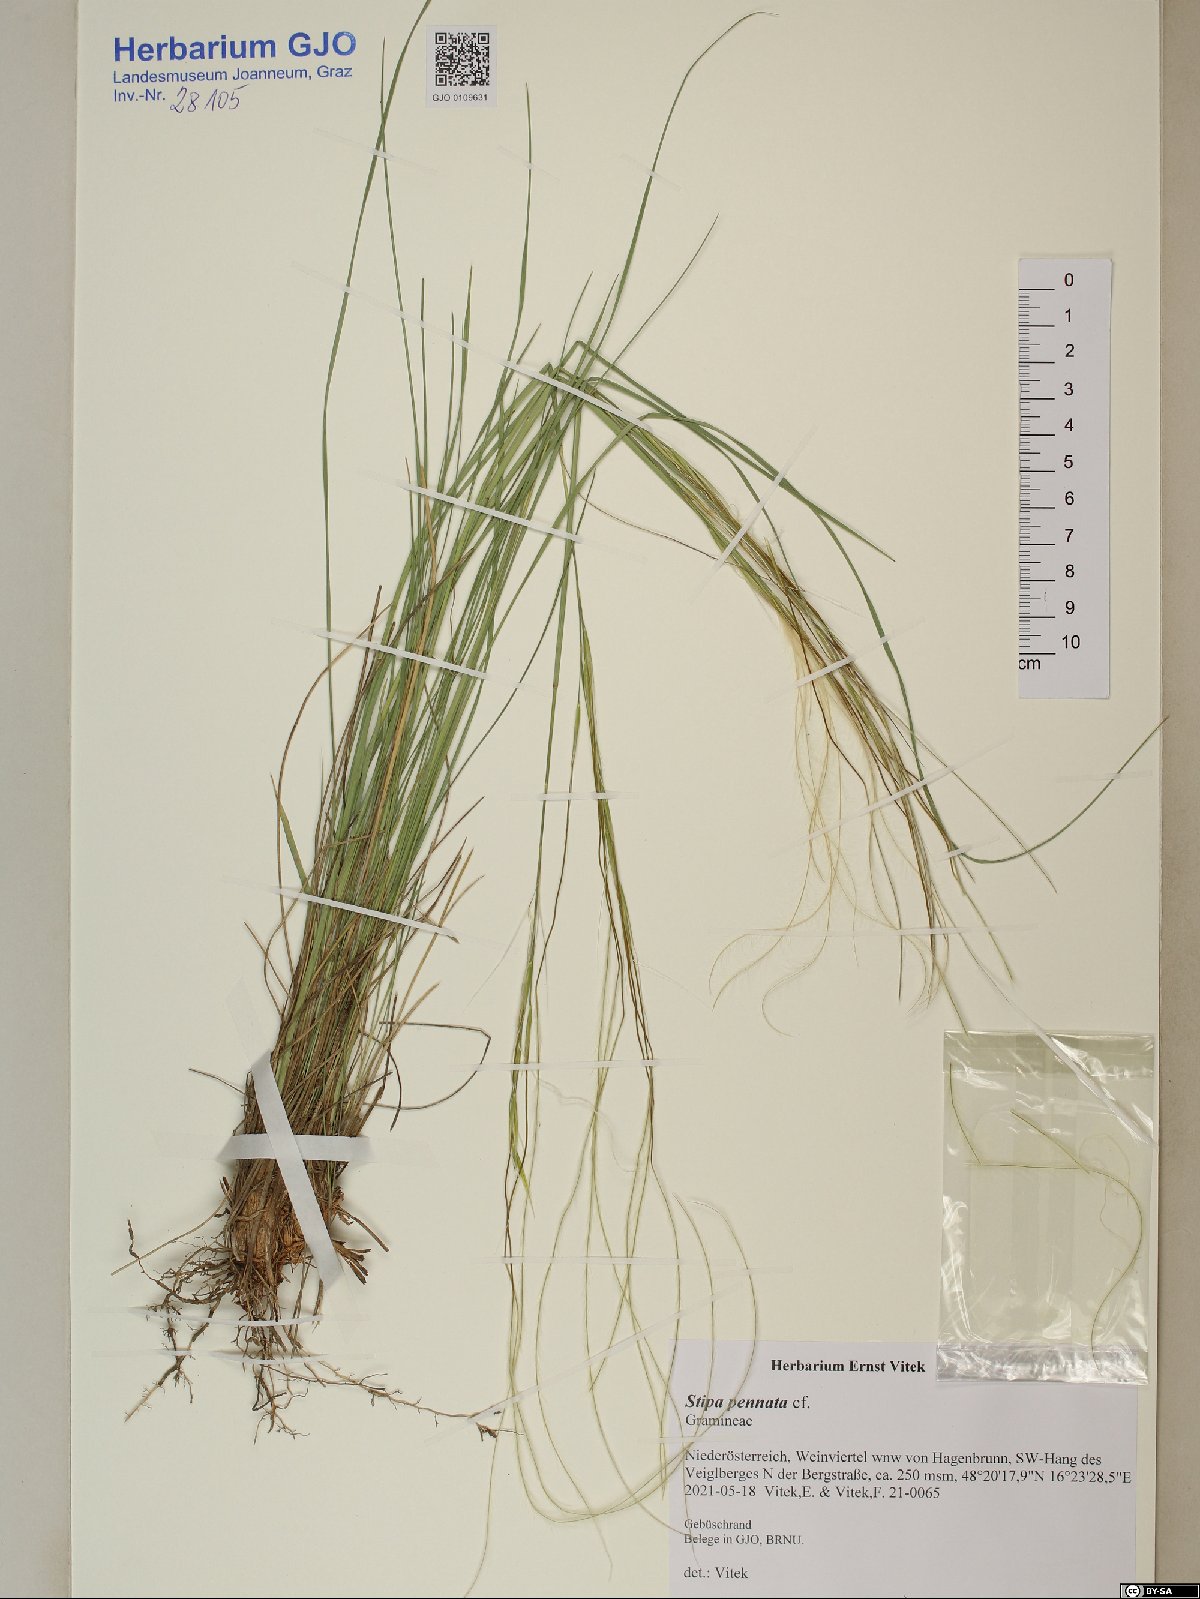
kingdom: Plantae
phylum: Tracheophyta
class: Liliopsida
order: Poales
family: Poaceae
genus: Stipa
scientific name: Stipa pennata
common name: European feather grass
